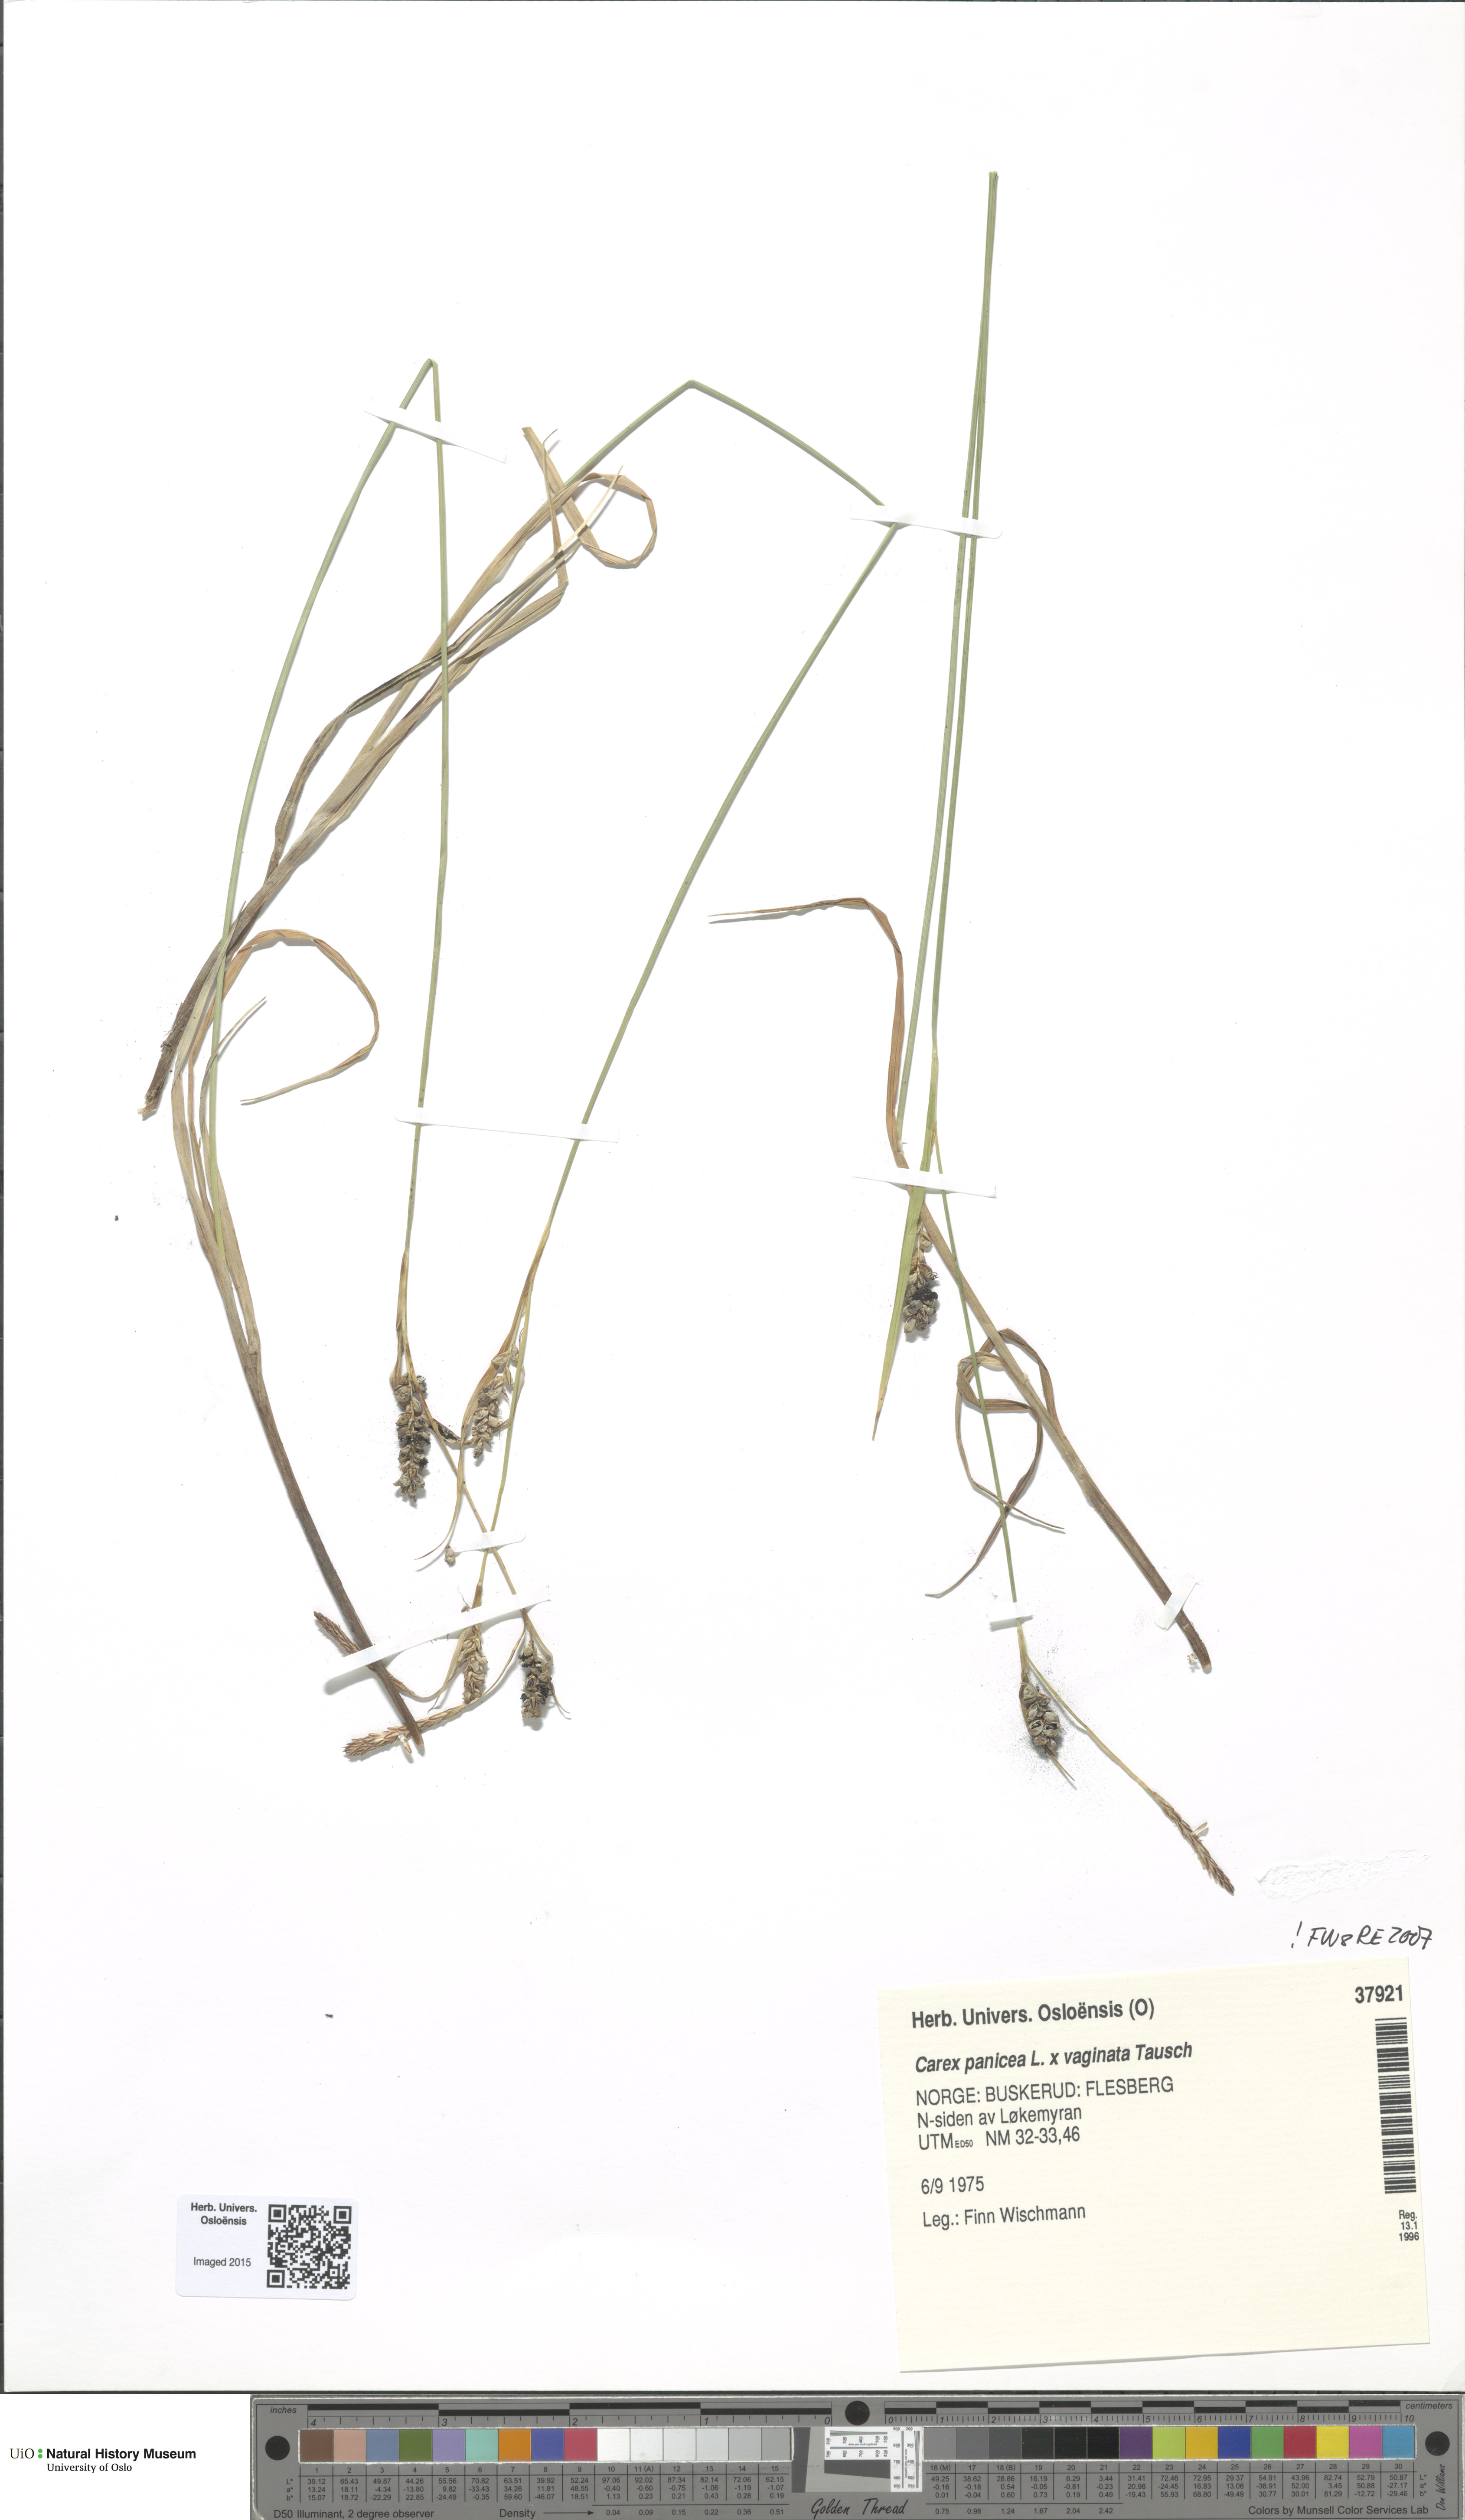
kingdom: Plantae
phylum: Tracheophyta
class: Liliopsida
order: Poales
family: Cyperaceae
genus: Carex
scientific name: Carex
